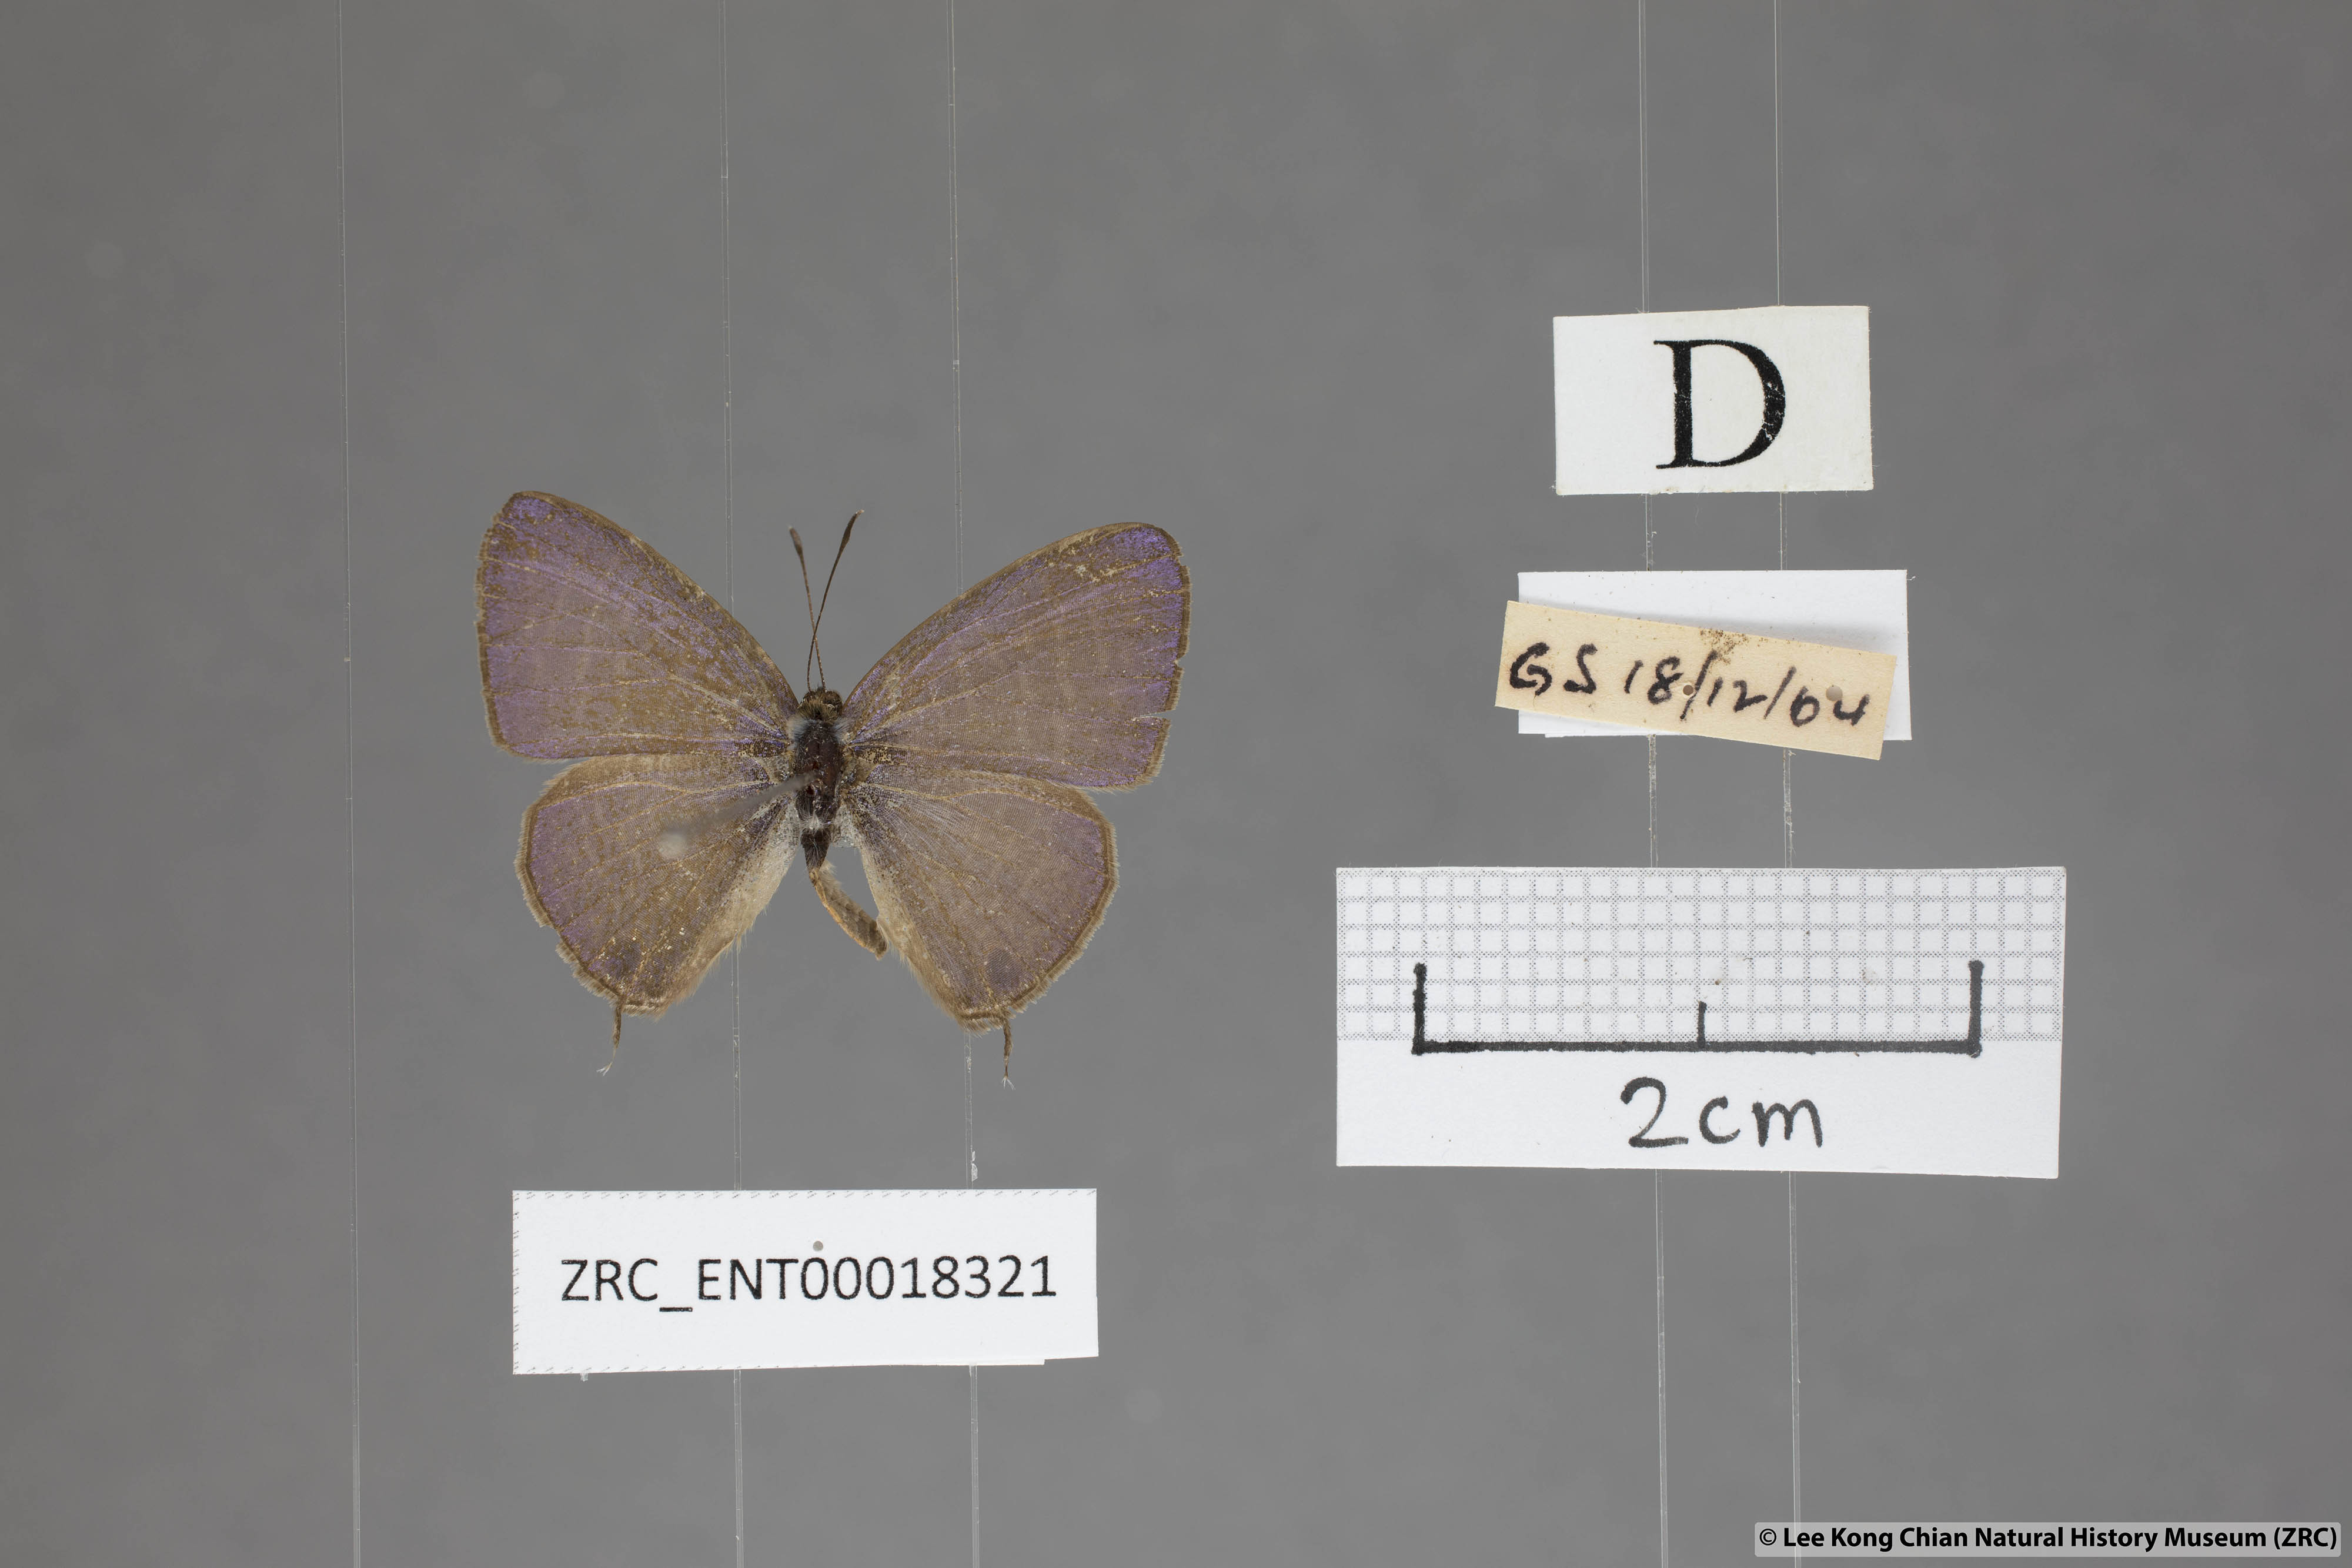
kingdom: Animalia
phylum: Arthropoda
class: Insecta
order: Lepidoptera
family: Lycaenidae
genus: Nacaduba
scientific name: Nacaduba beroe
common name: Opaque sixline blue
